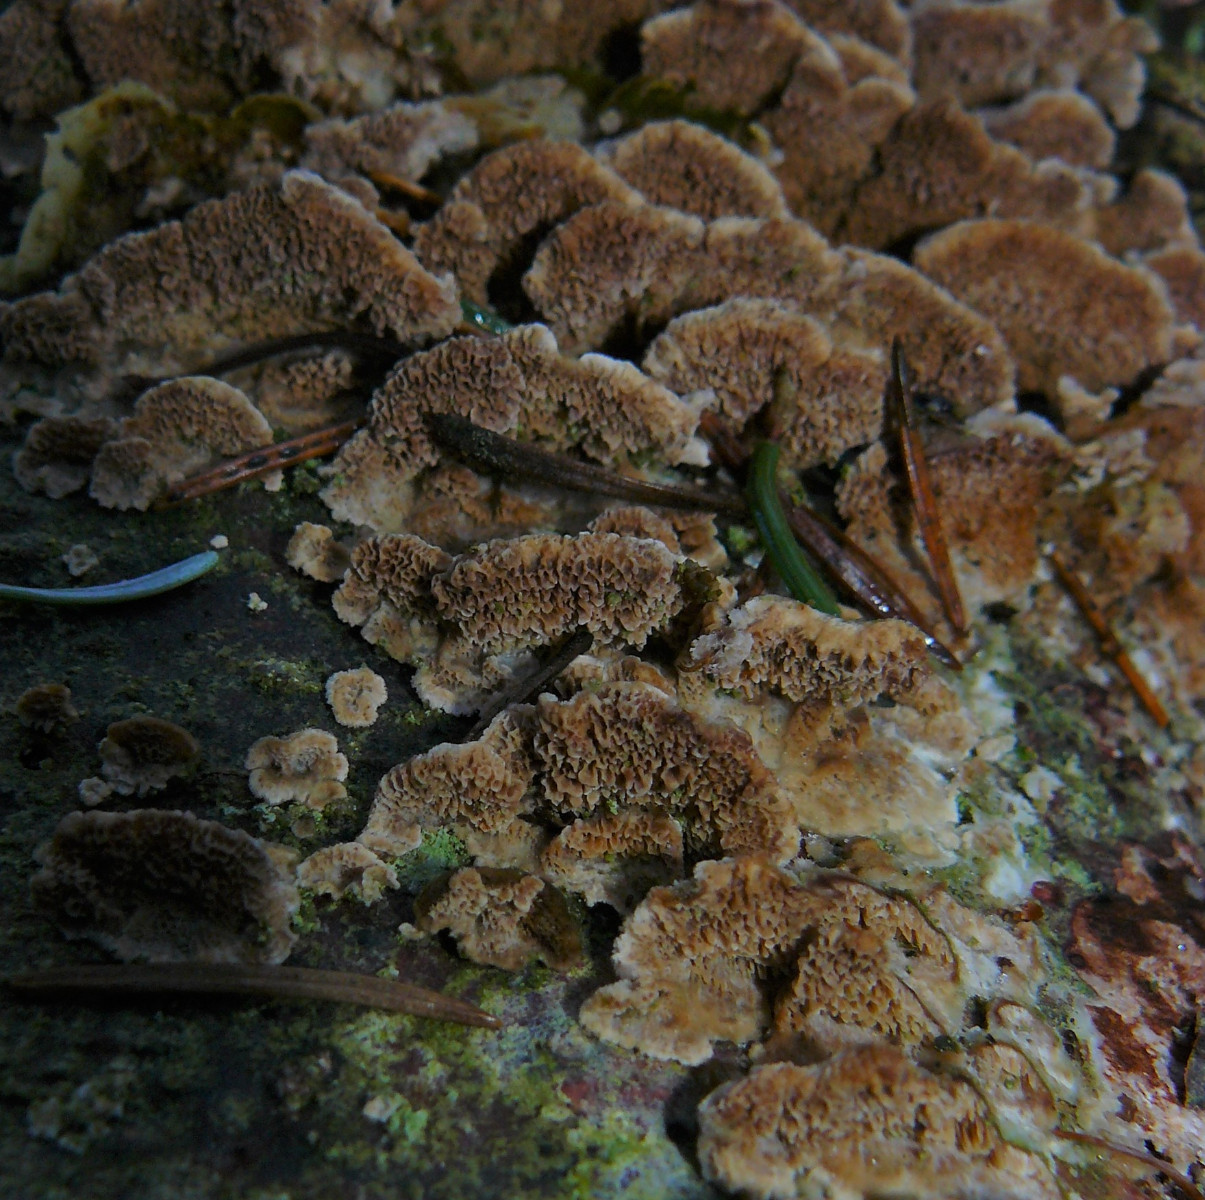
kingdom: Fungi
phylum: Basidiomycota
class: Agaricomycetes
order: Hymenochaetales
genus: Trichaptum
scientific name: Trichaptum abietinum
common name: almindelig violporesvamp
